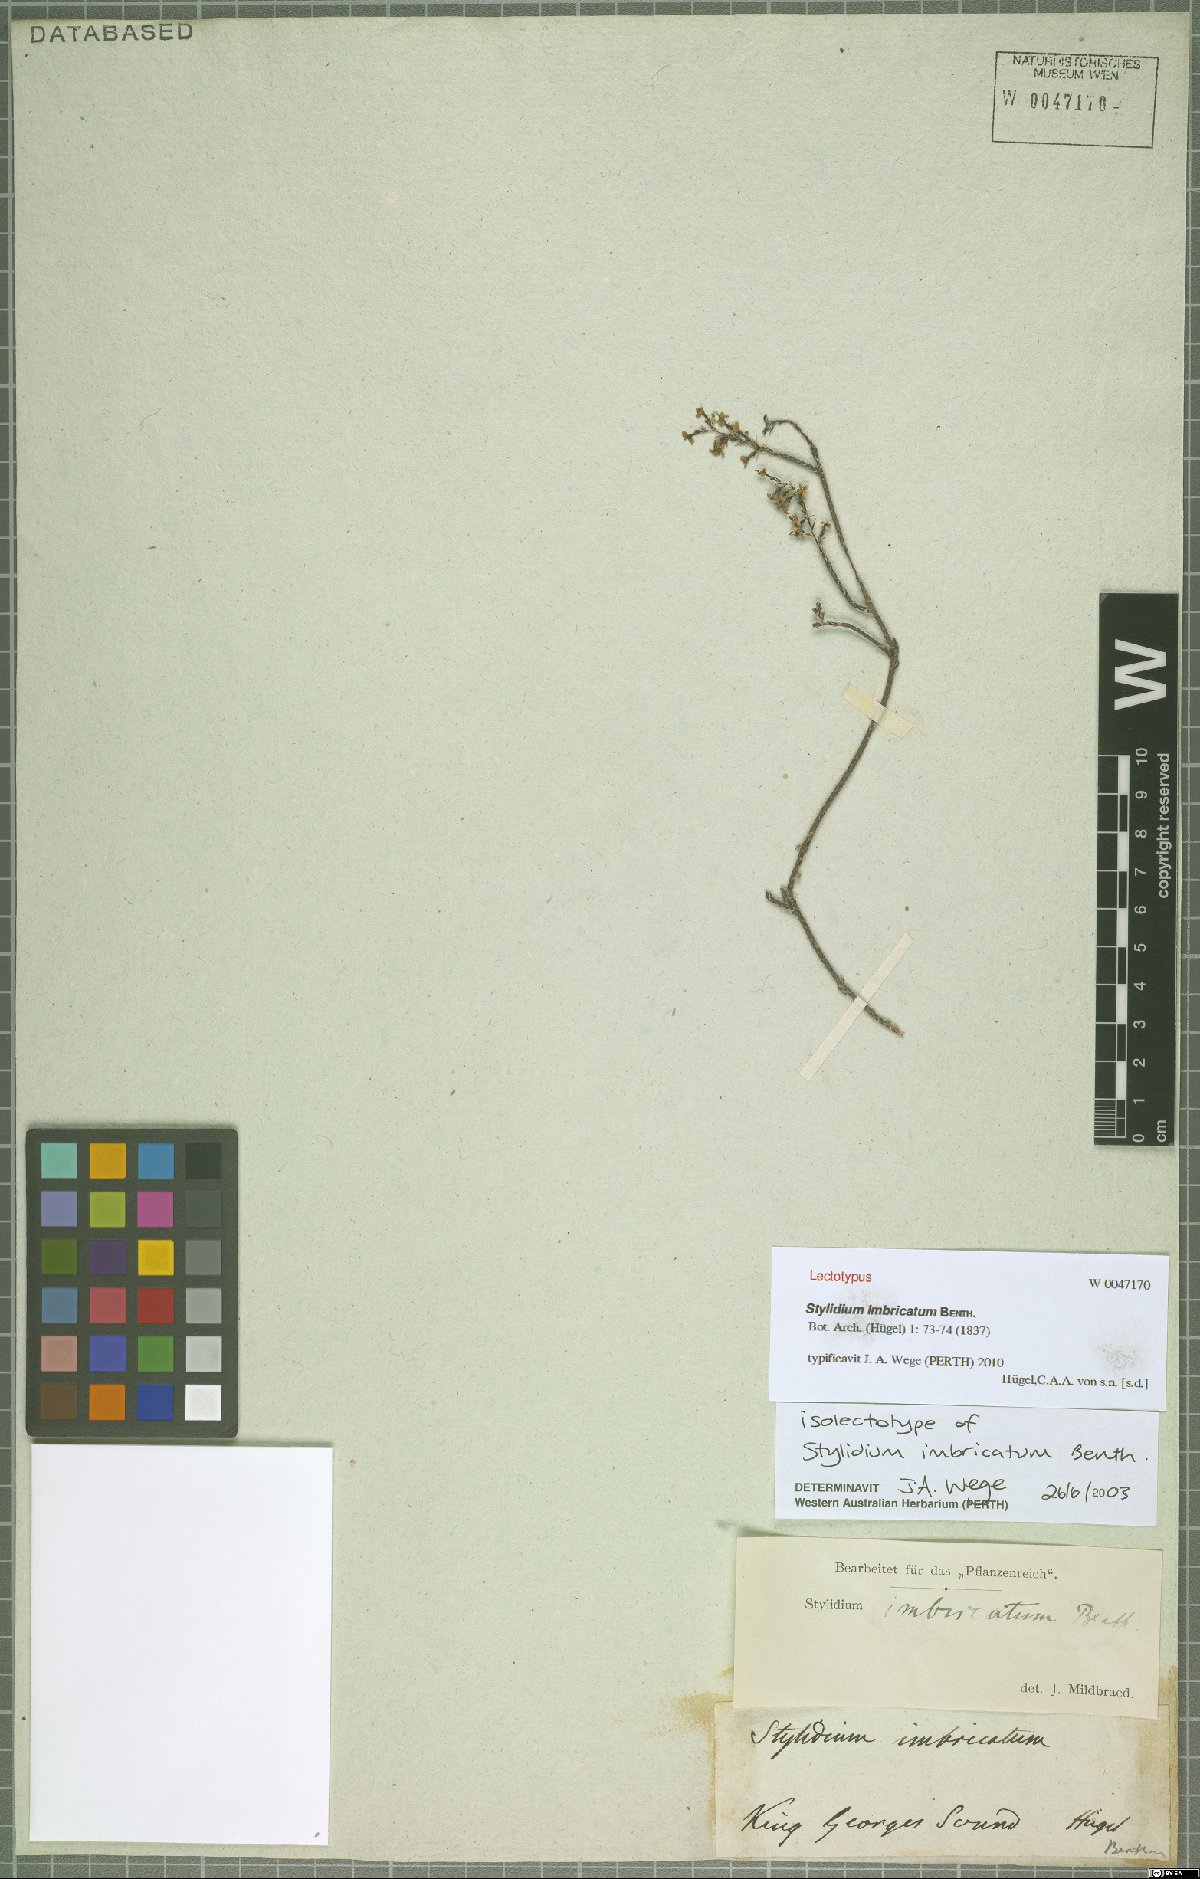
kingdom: Plantae
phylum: Tracheophyta
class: Magnoliopsida
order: Asterales
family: Stylidiaceae
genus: Stylidium
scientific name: Stylidium imbricatum
